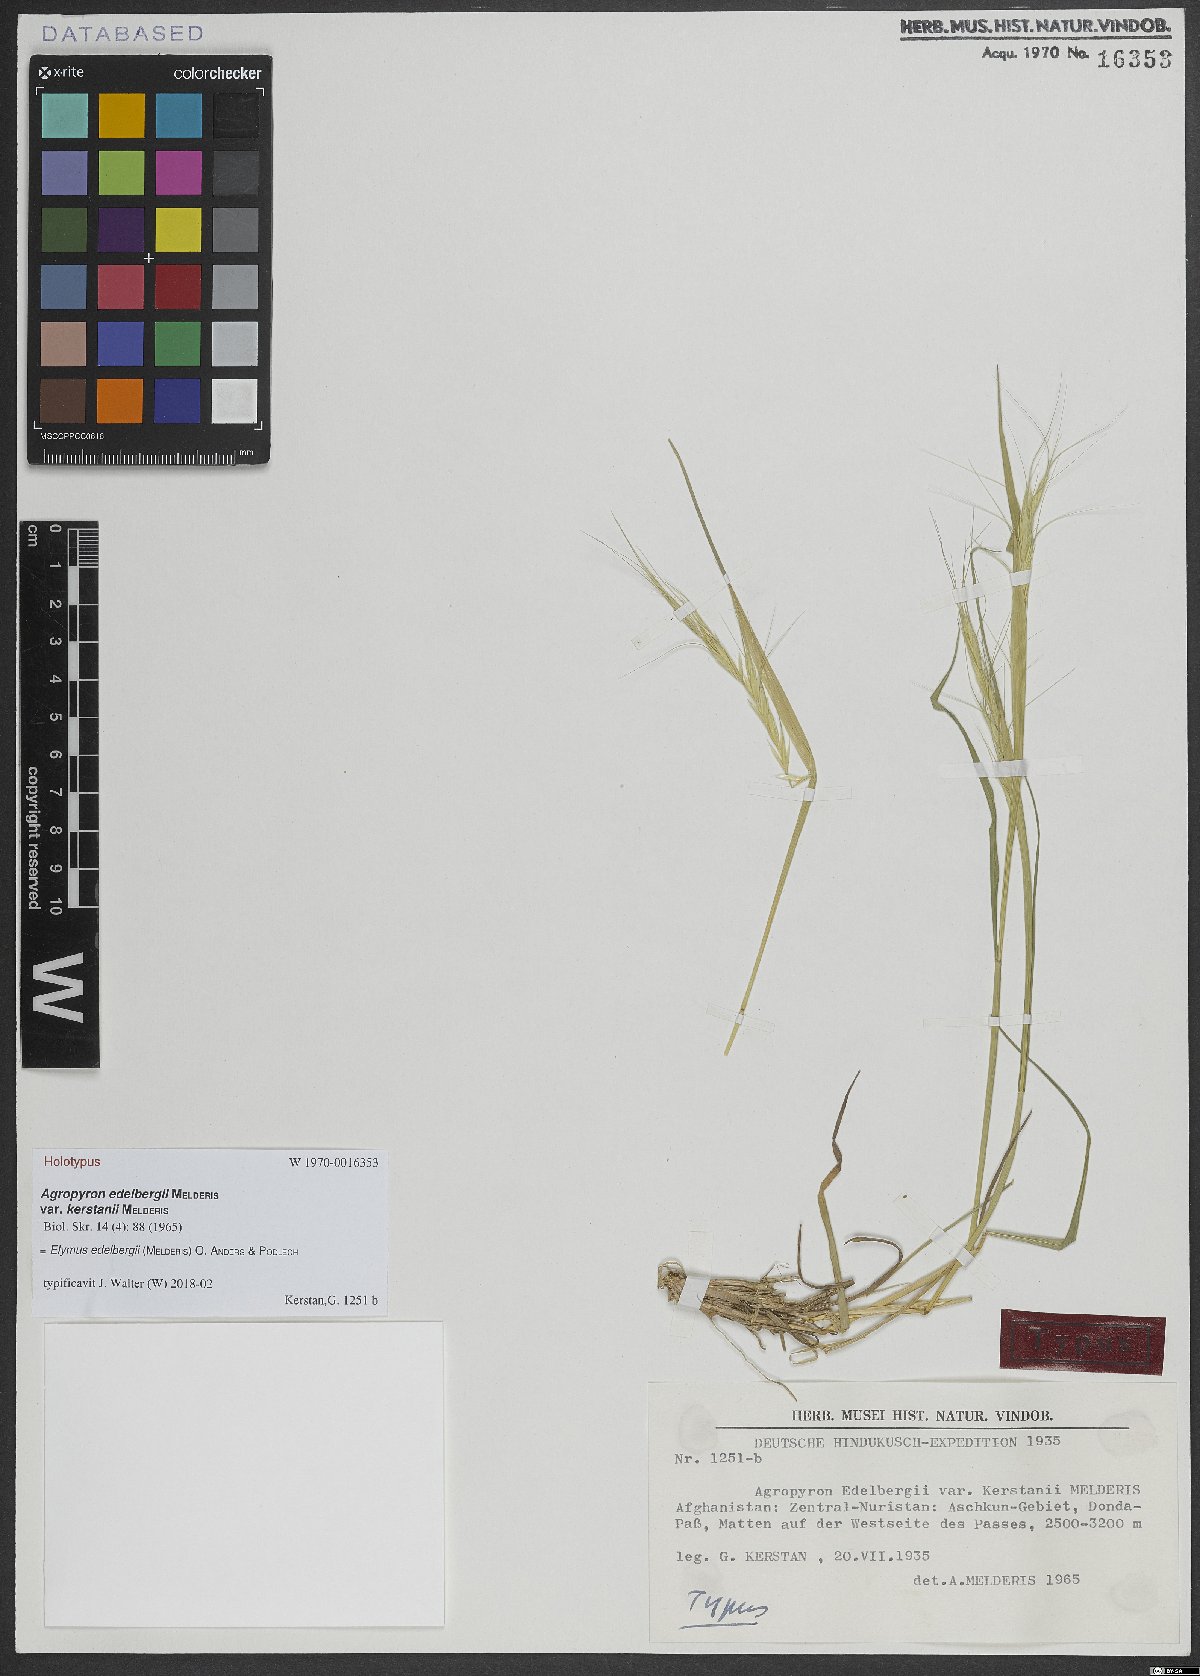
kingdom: Plantae
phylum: Tracheophyta
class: Liliopsida
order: Poales
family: Poaceae
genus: Elymus
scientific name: Elymus edelbergii
